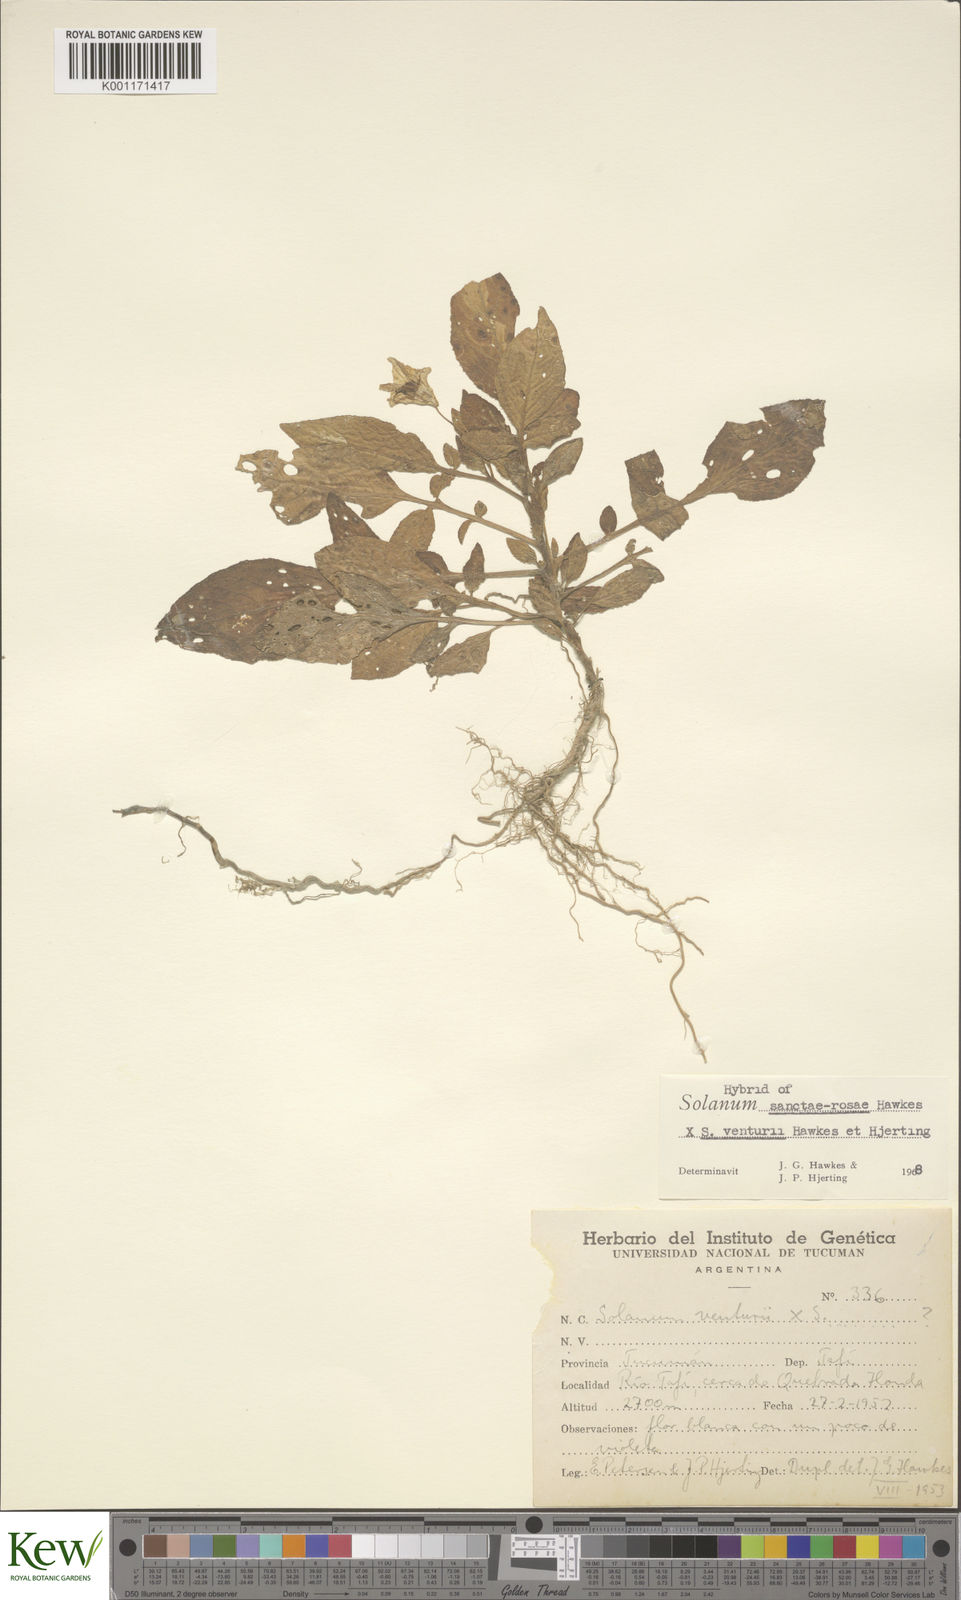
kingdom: Plantae
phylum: Tracheophyta
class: Magnoliopsida
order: Solanales
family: Solanaceae
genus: Solanum
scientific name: Solanum boliviense
